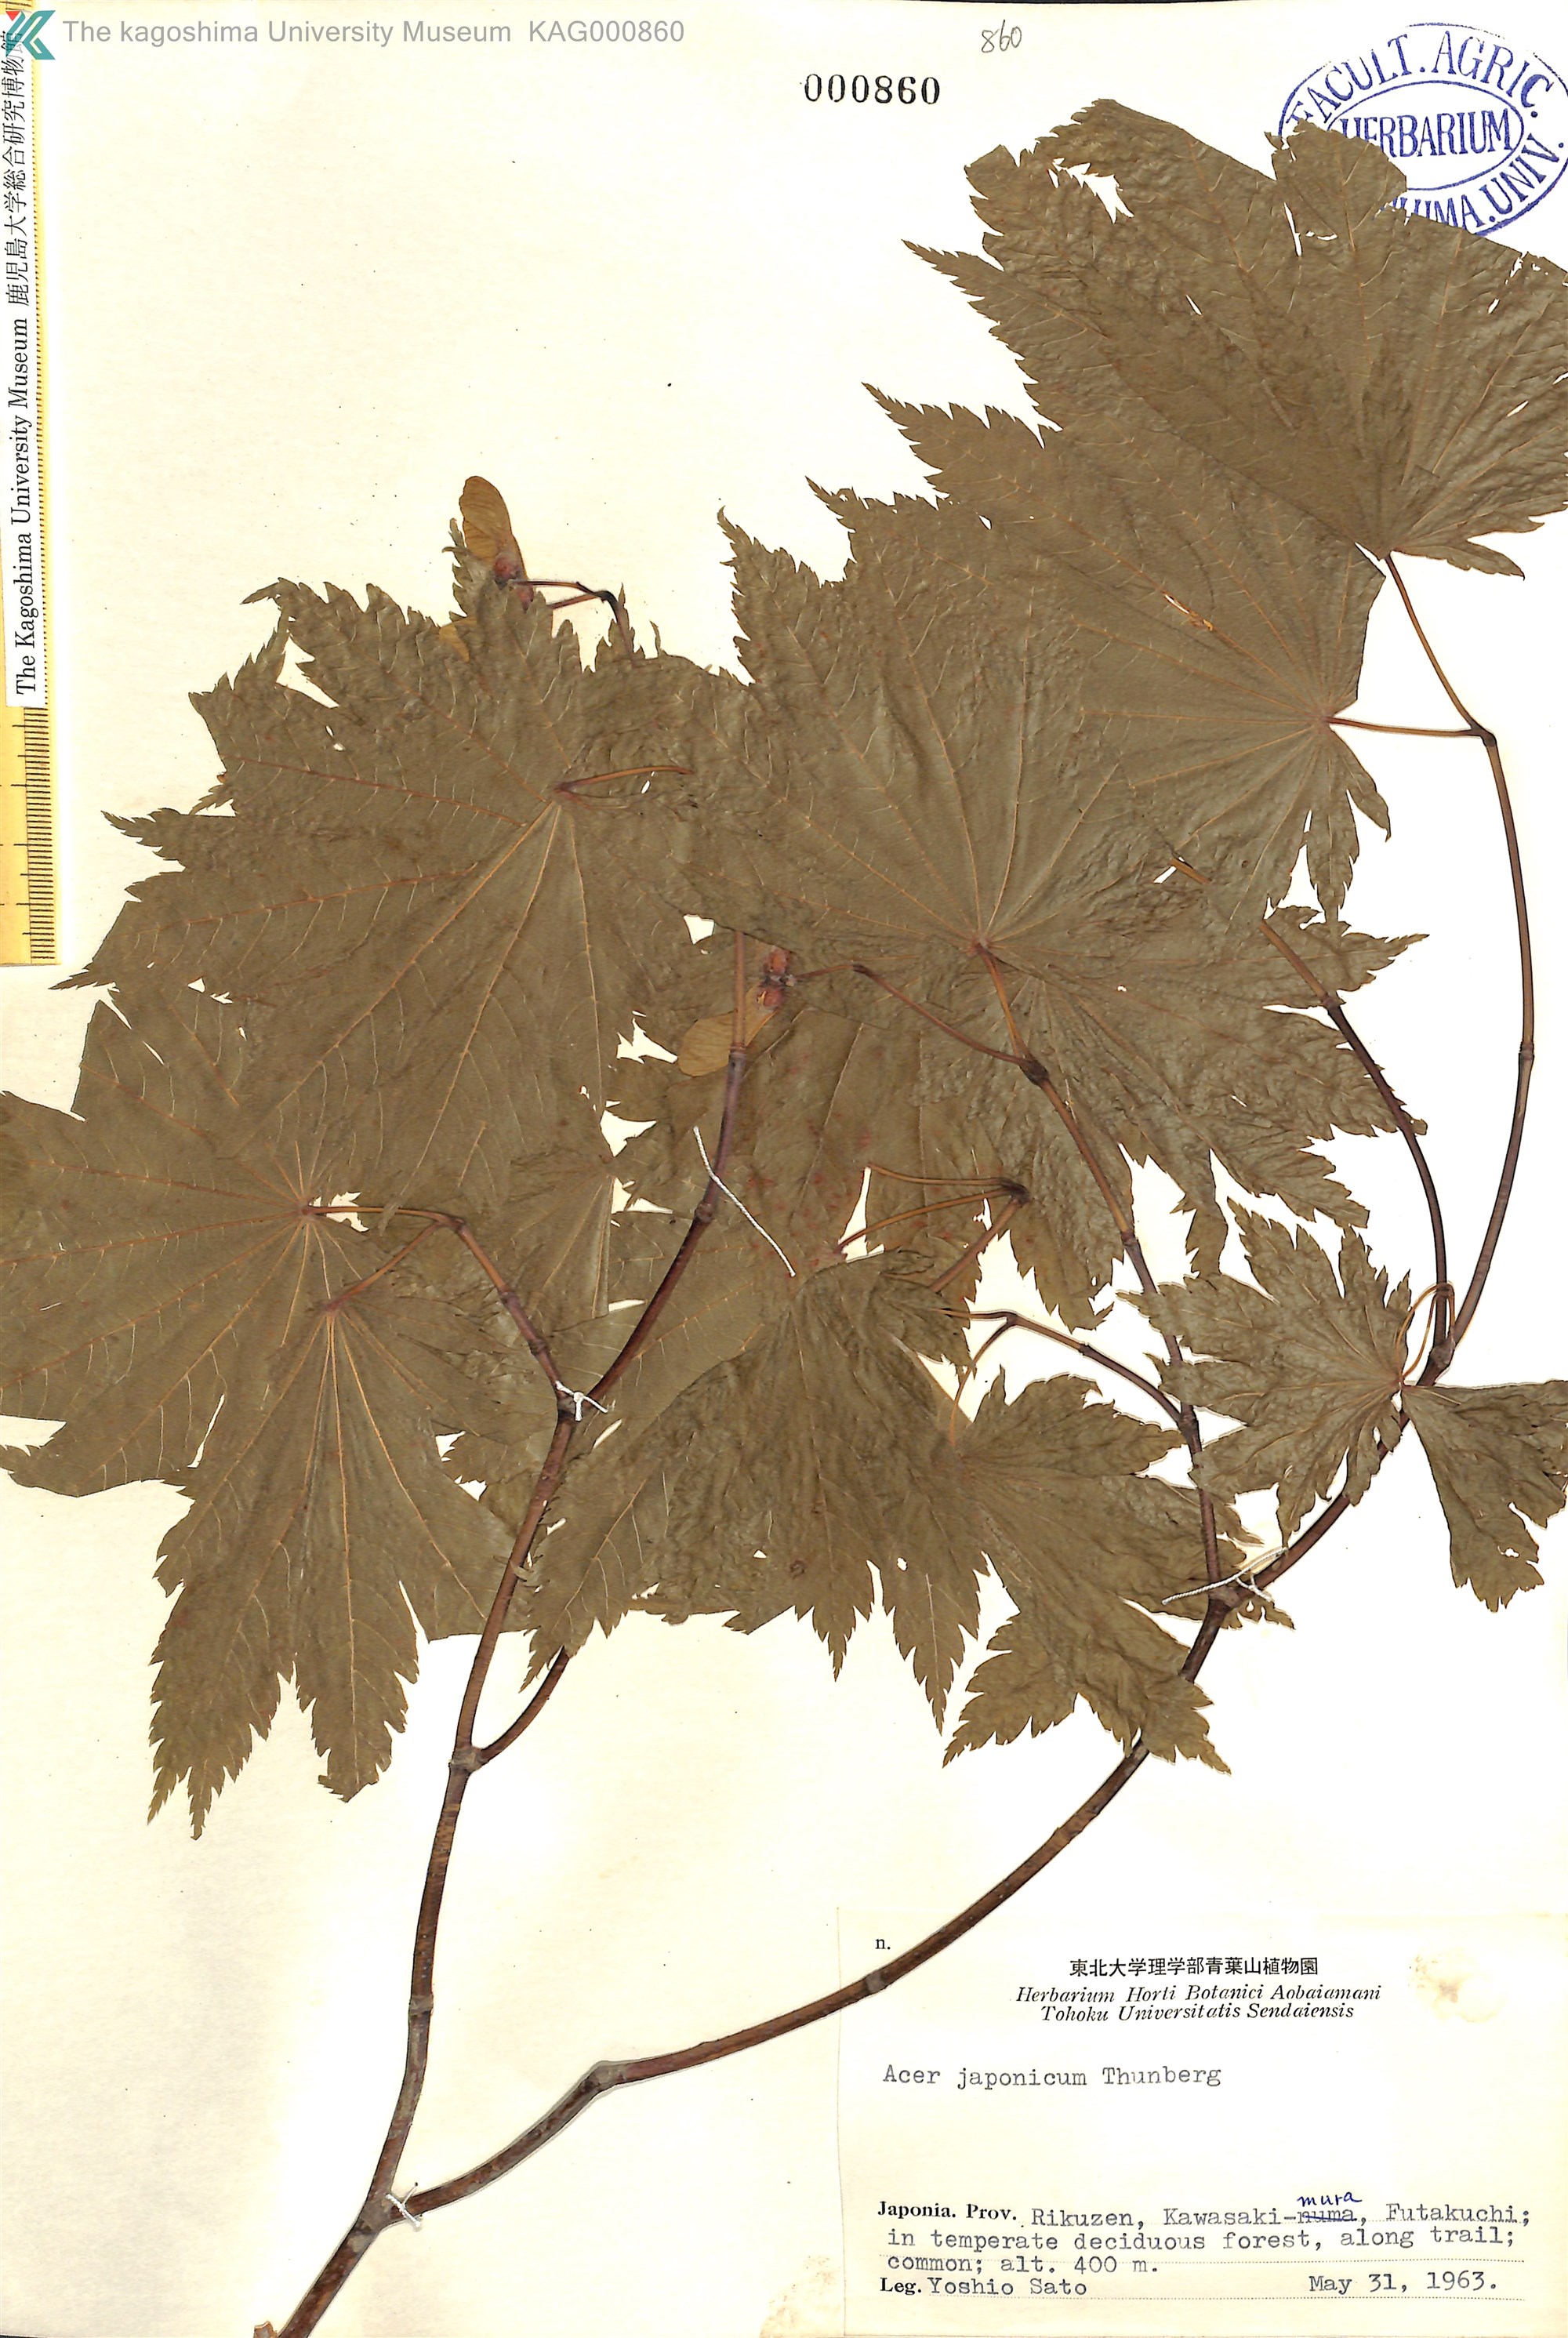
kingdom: Plantae
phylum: Tracheophyta
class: Magnoliopsida
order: Sapindales
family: Sapindaceae
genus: Acer
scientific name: Acer japonicum
